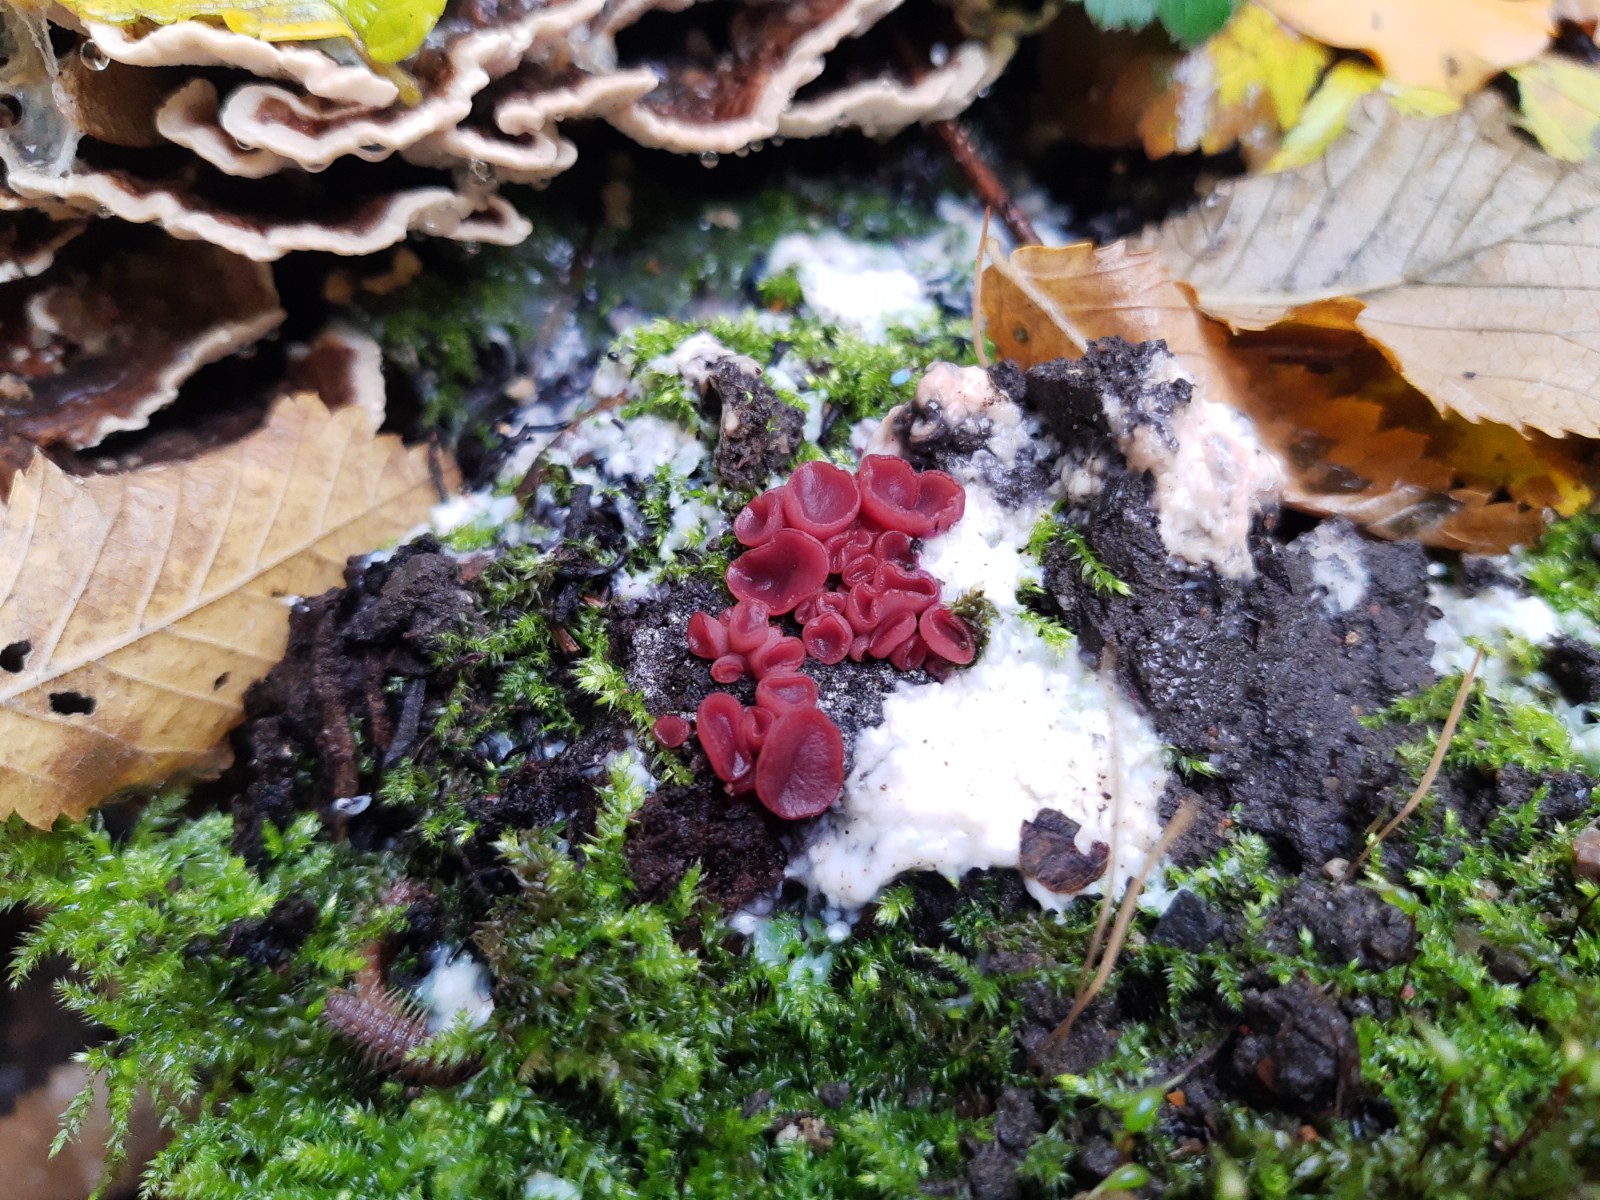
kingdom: Fungi
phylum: Ascomycota
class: Leotiomycetes
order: Helotiales
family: Gelatinodiscaceae
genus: Ascocoryne
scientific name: Ascocoryne cylichnium
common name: stor sejskive
